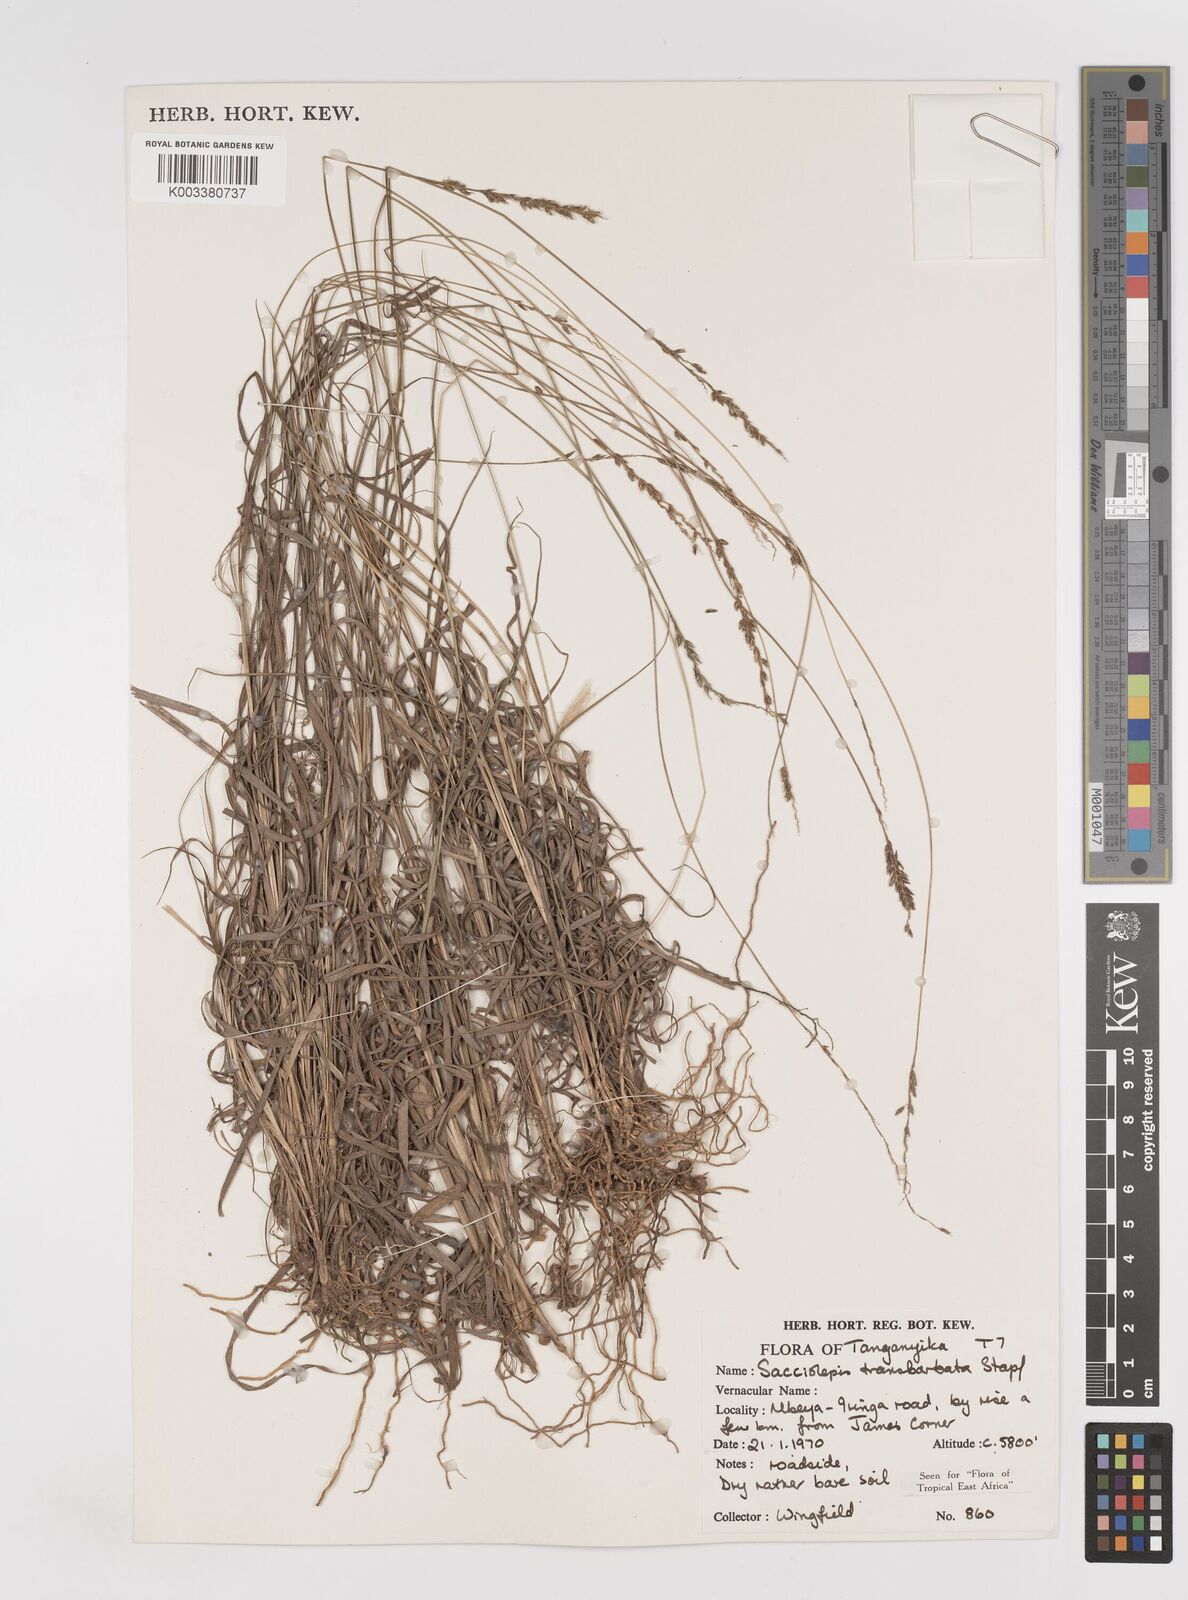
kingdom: Plantae
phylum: Tracheophyta
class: Liliopsida
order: Poales
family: Poaceae
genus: Sacciolepis
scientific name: Sacciolepis transbarbata
